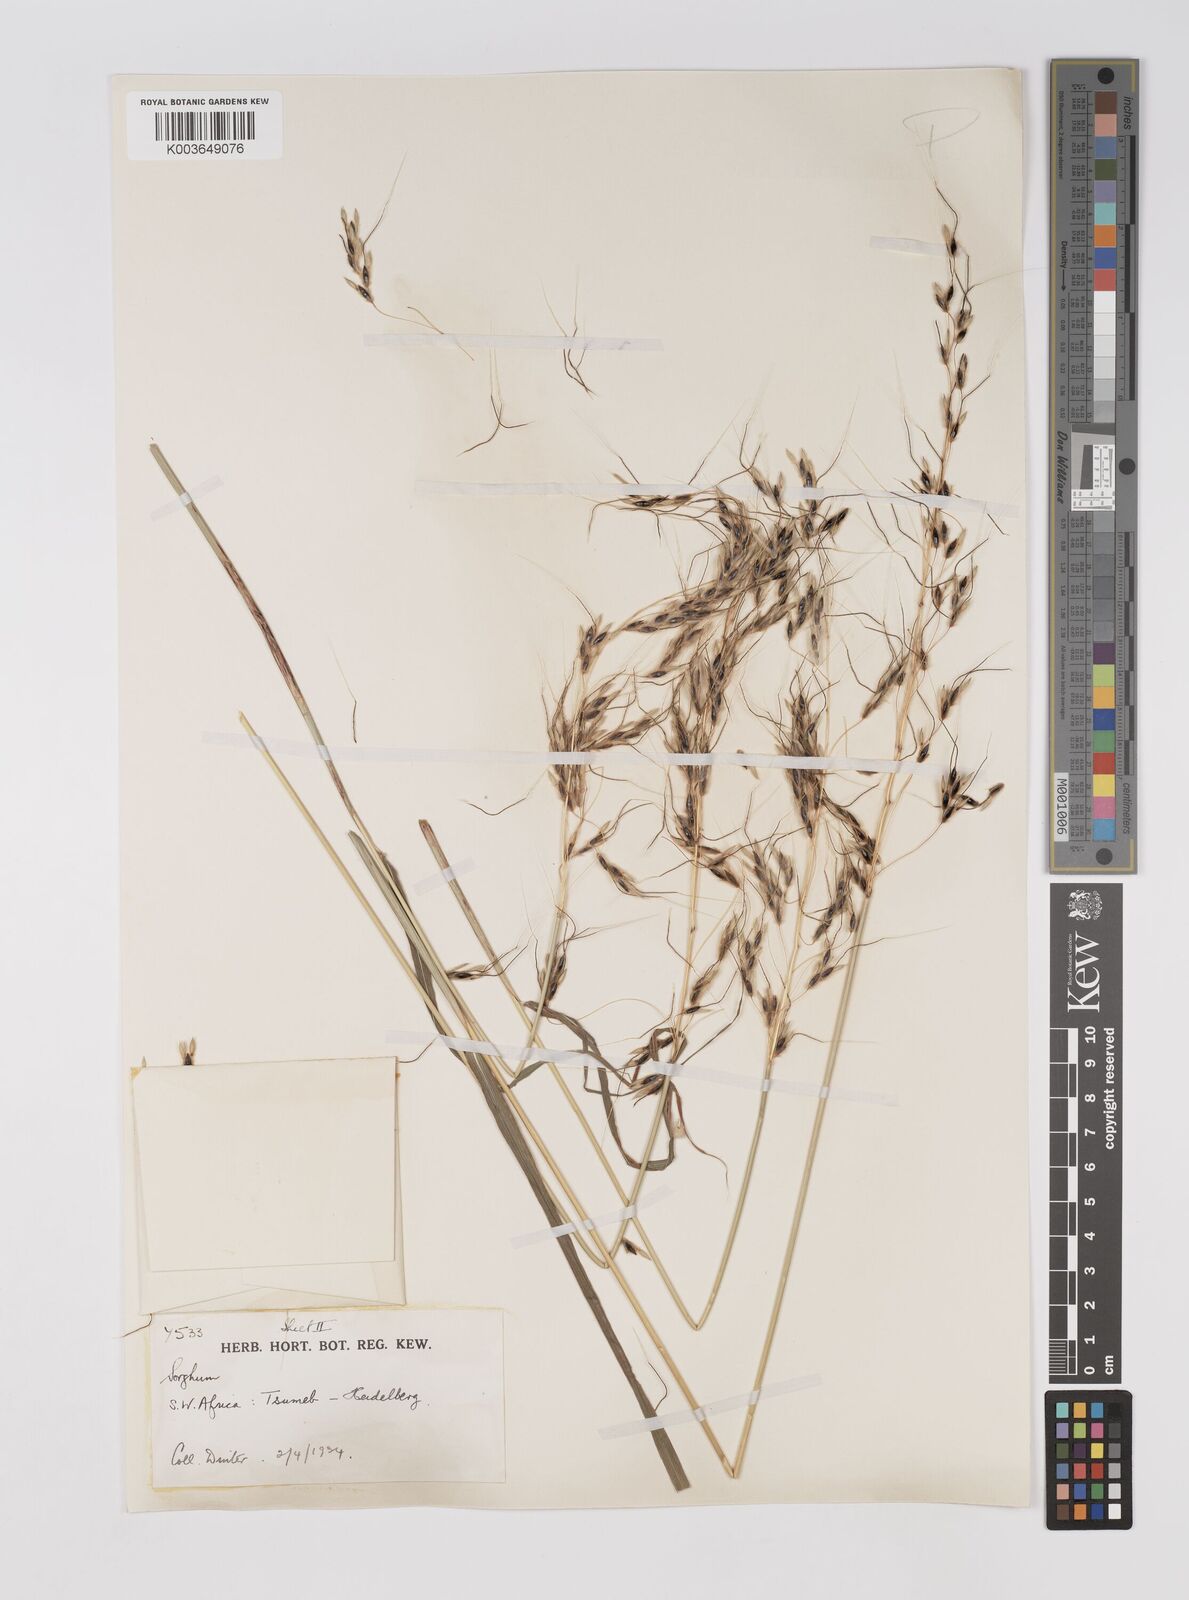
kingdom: Plantae
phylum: Tracheophyta
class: Liliopsida
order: Poales
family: Poaceae
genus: Sarga
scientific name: Sarga versicolor
